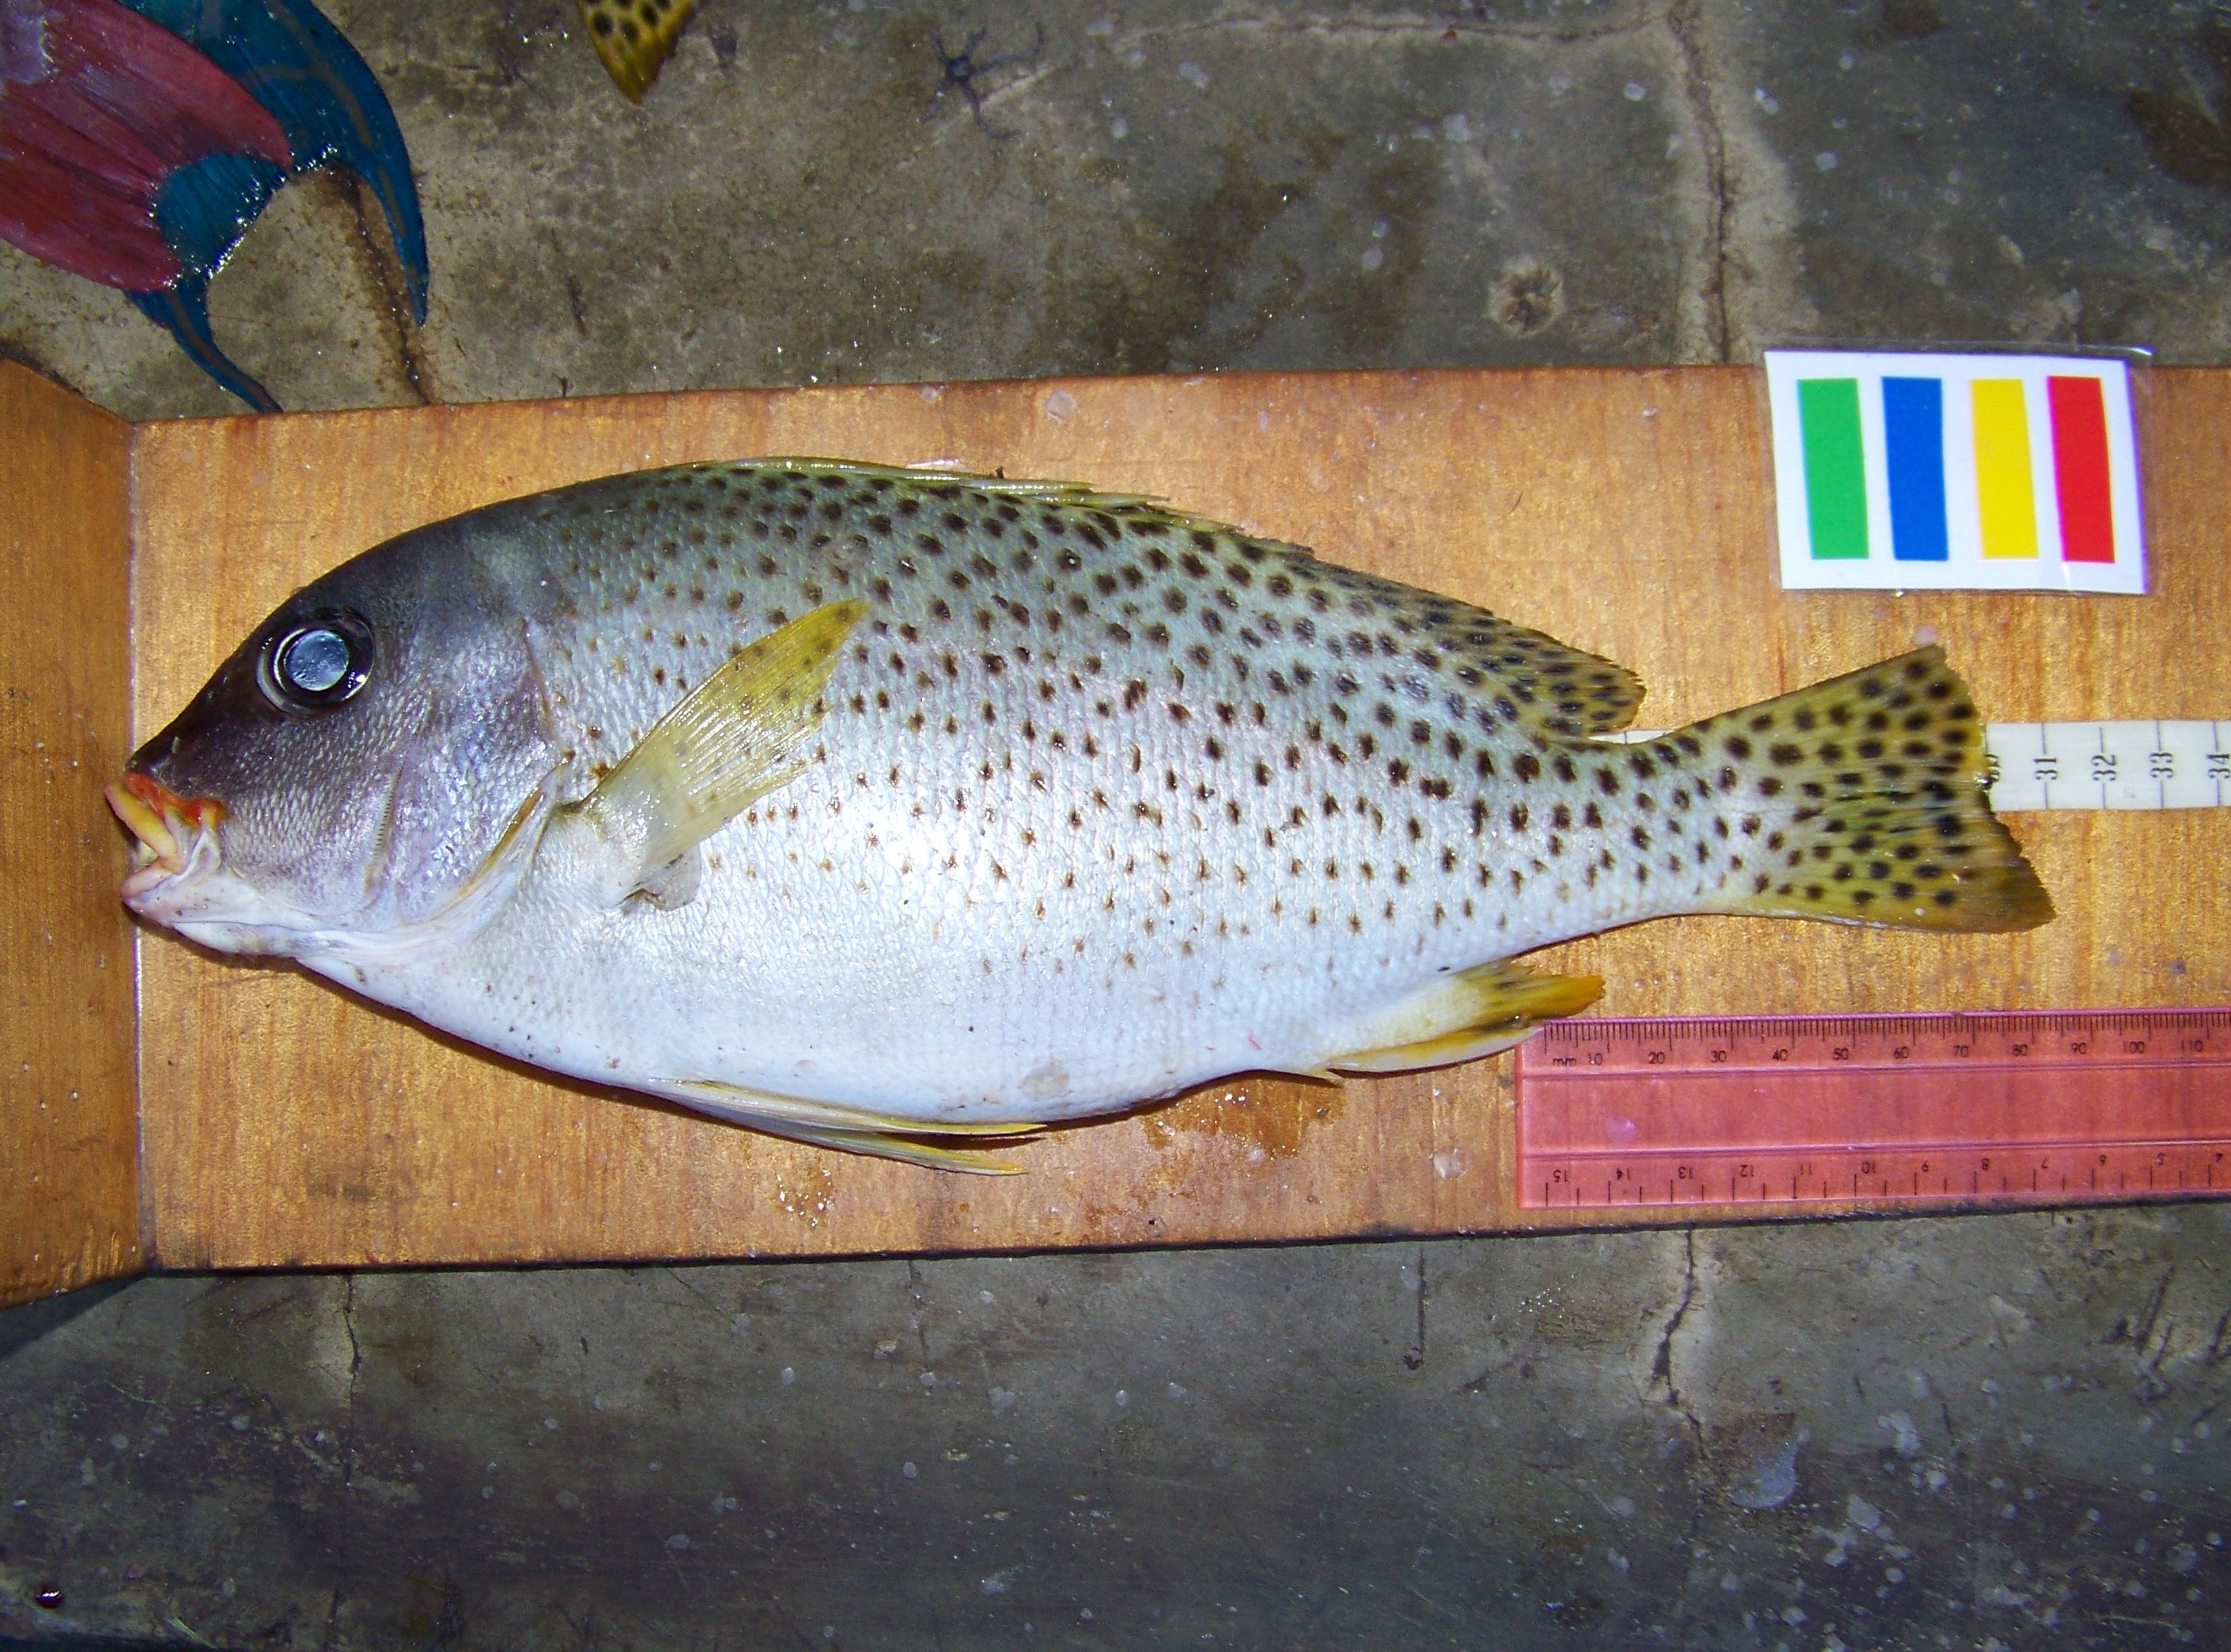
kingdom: Animalia
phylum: Chordata
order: Perciformes
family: Haemulidae
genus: Plectorhinchus
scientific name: Plectorhinchus gaterinus
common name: Blackspotted rubberlip
